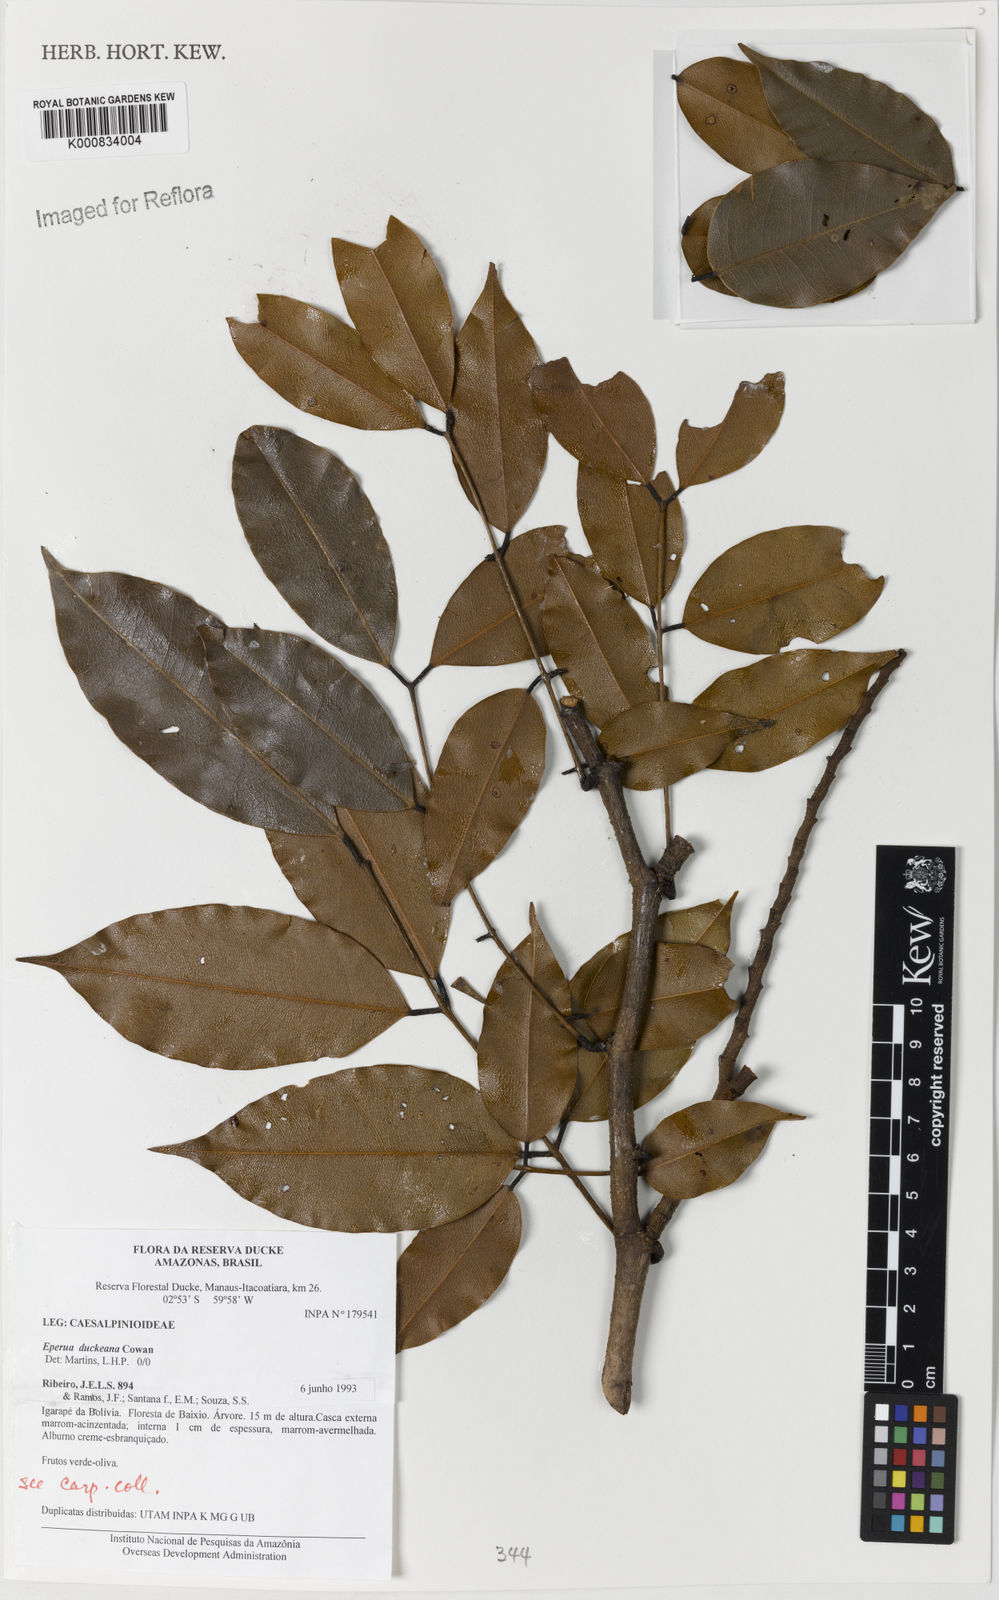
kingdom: Plantae
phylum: Tracheophyta
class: Magnoliopsida
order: Fabales
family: Fabaceae
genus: Eperua
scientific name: Eperua duckeana
